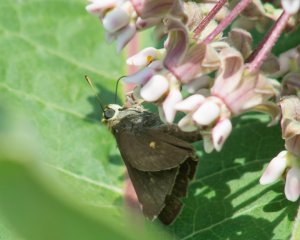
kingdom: Animalia
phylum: Arthropoda
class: Insecta
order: Lepidoptera
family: Hesperiidae
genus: Euphyes
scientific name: Euphyes vestris
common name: Dun Skipper
